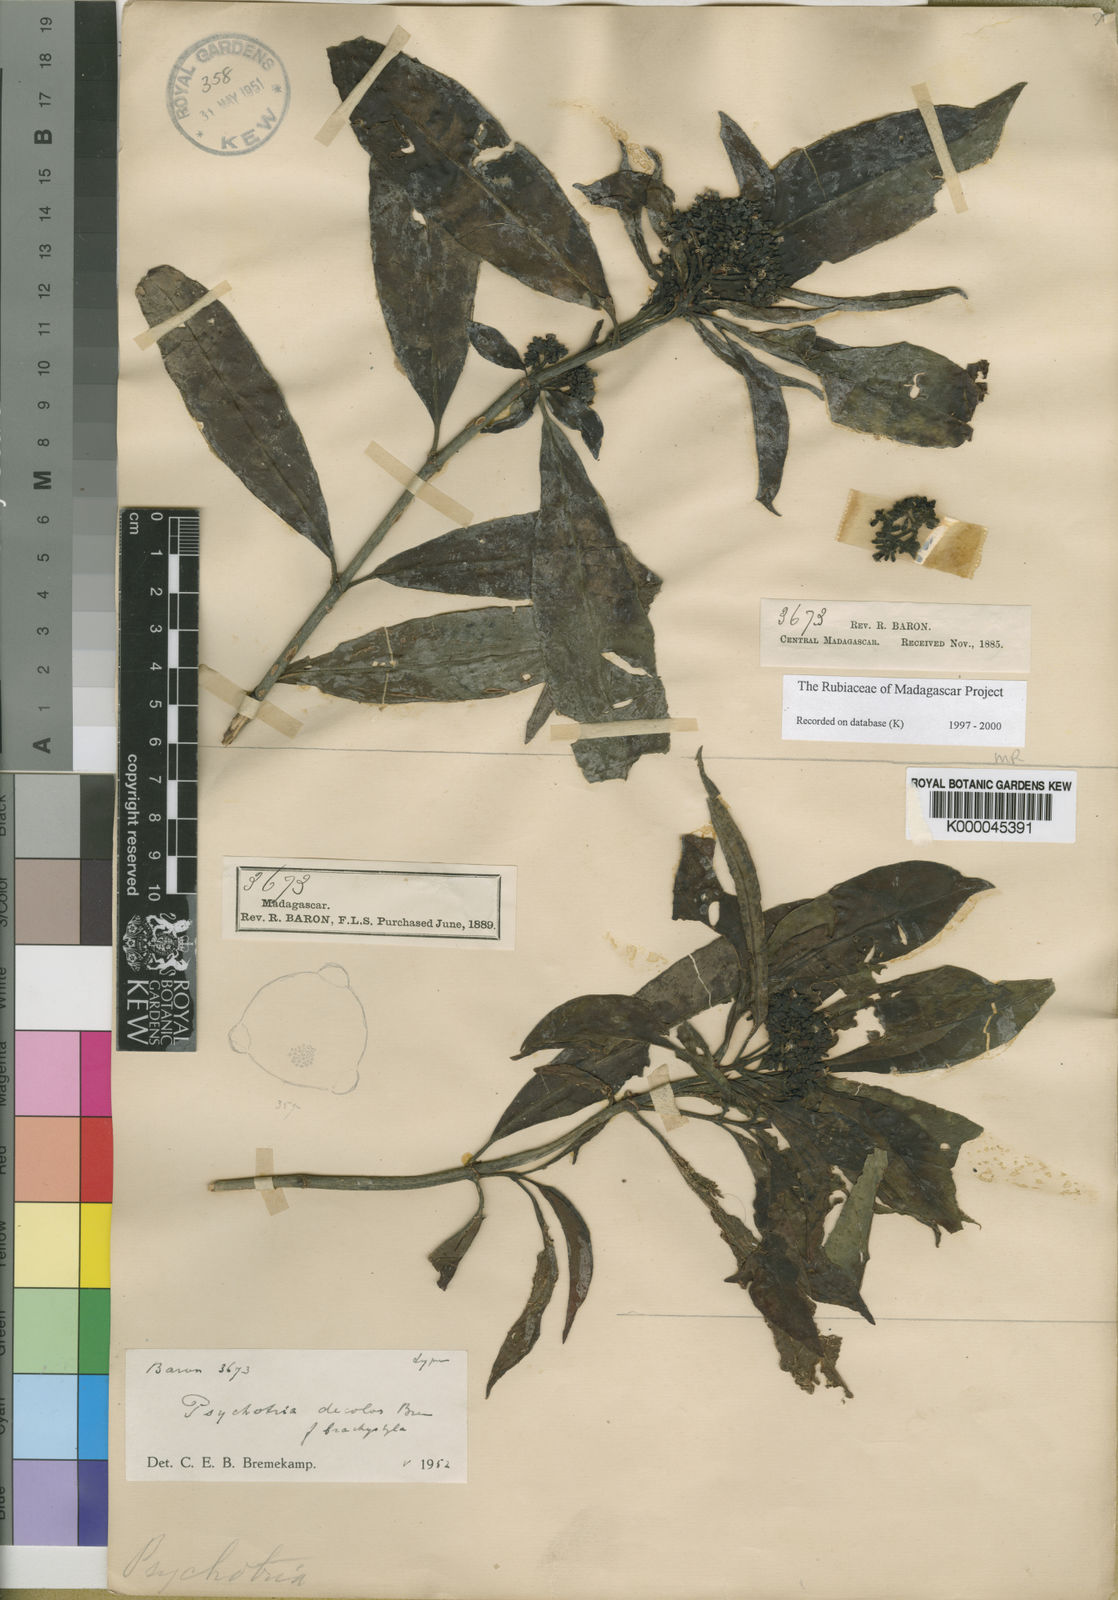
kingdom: Plantae
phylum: Tracheophyta
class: Magnoliopsida
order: Gentianales
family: Rubiaceae
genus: Psychotria
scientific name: Psychotria decolor
